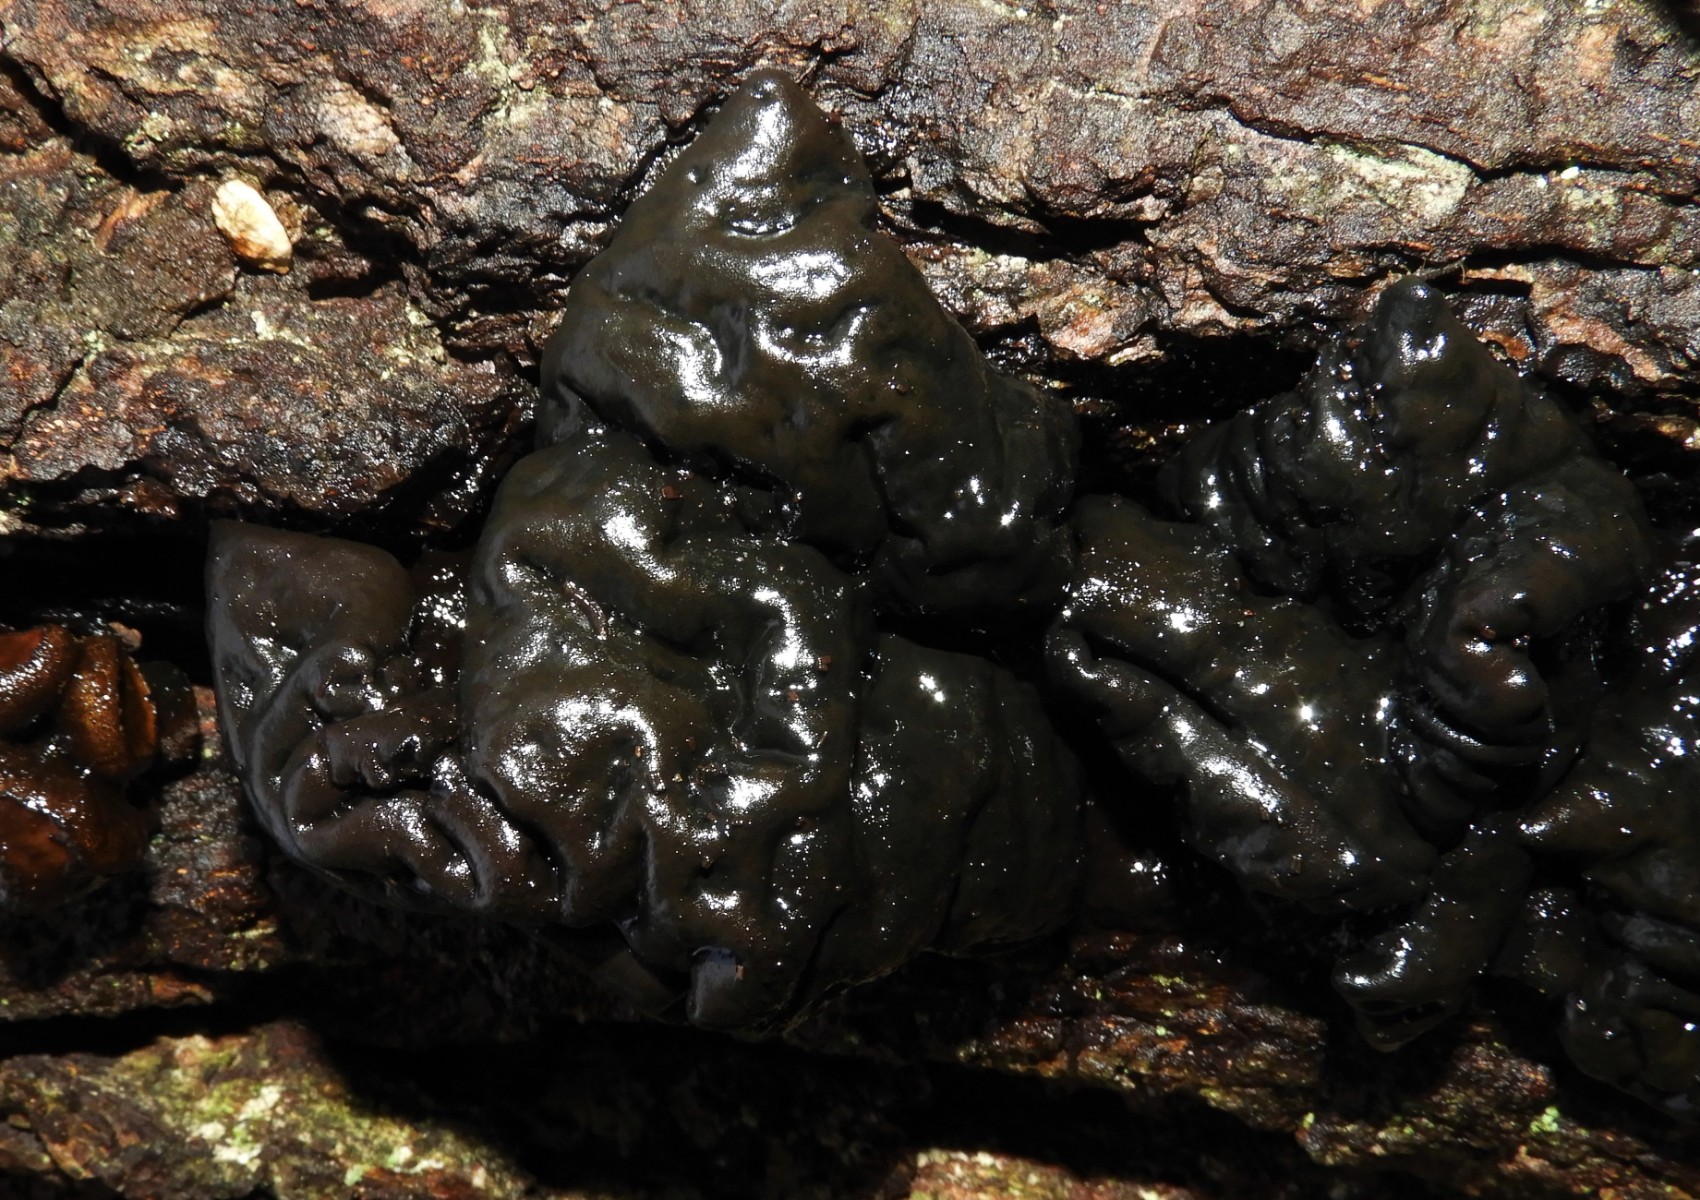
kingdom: Fungi
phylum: Basidiomycota
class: Agaricomycetes
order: Auriculariales
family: Auriculariaceae
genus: Exidia
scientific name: Exidia nigricans
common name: almindelig bævretop
